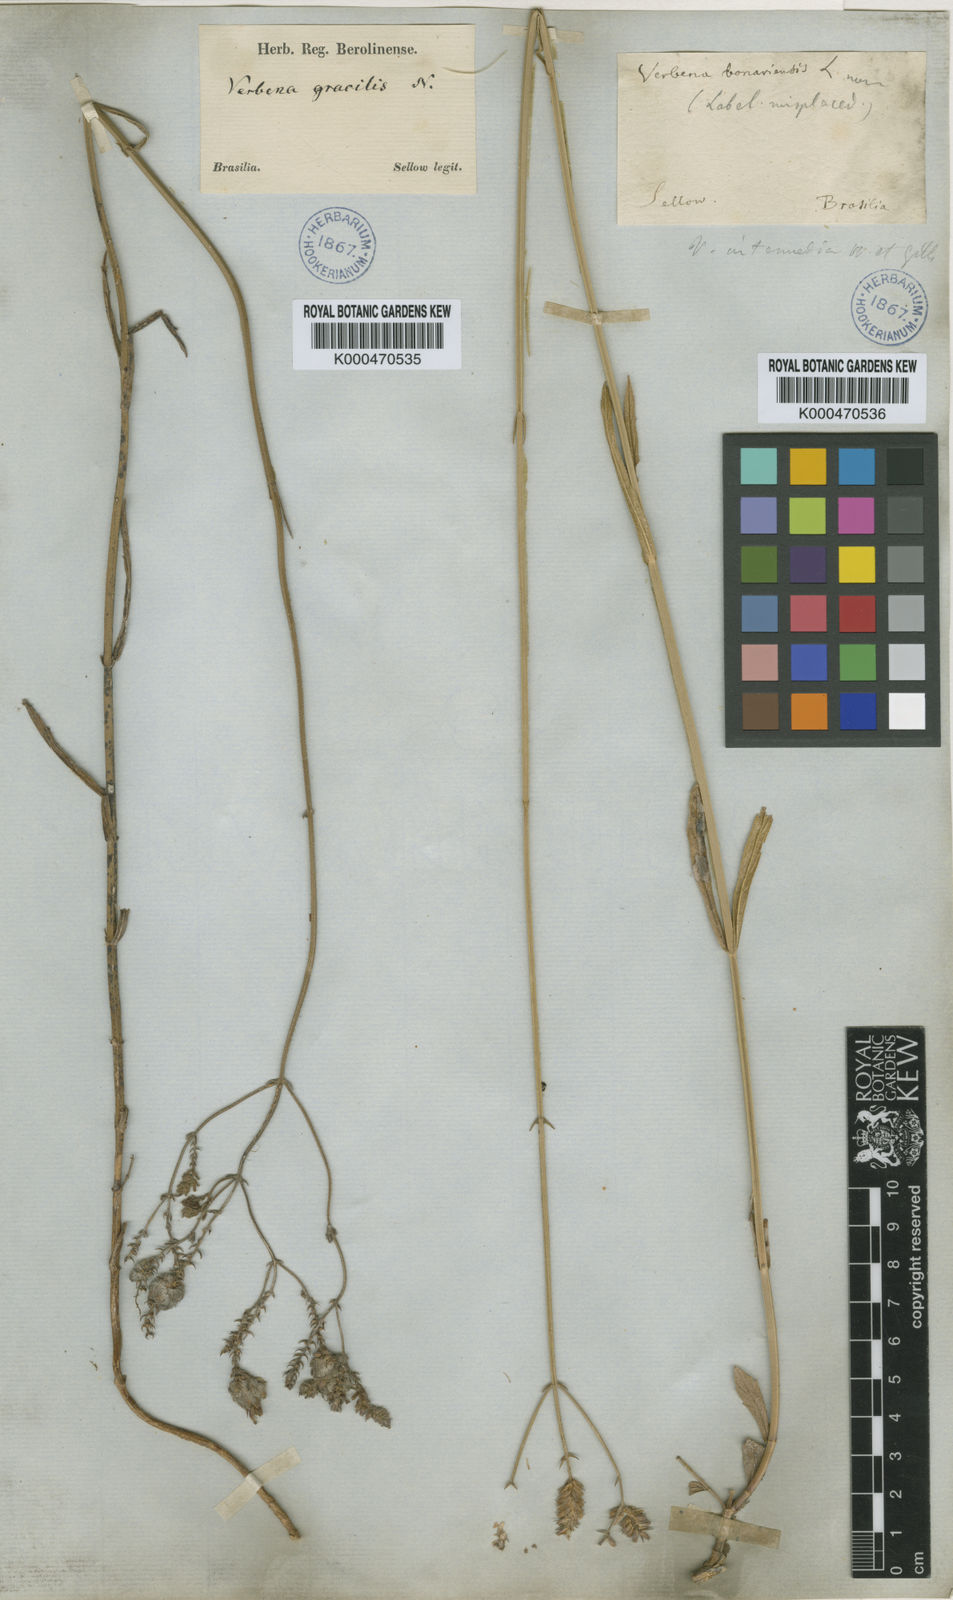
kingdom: Plantae
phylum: Tracheophyta
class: Magnoliopsida
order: Lamiales
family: Verbenaceae
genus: Verbena
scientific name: Verbena intermedia
